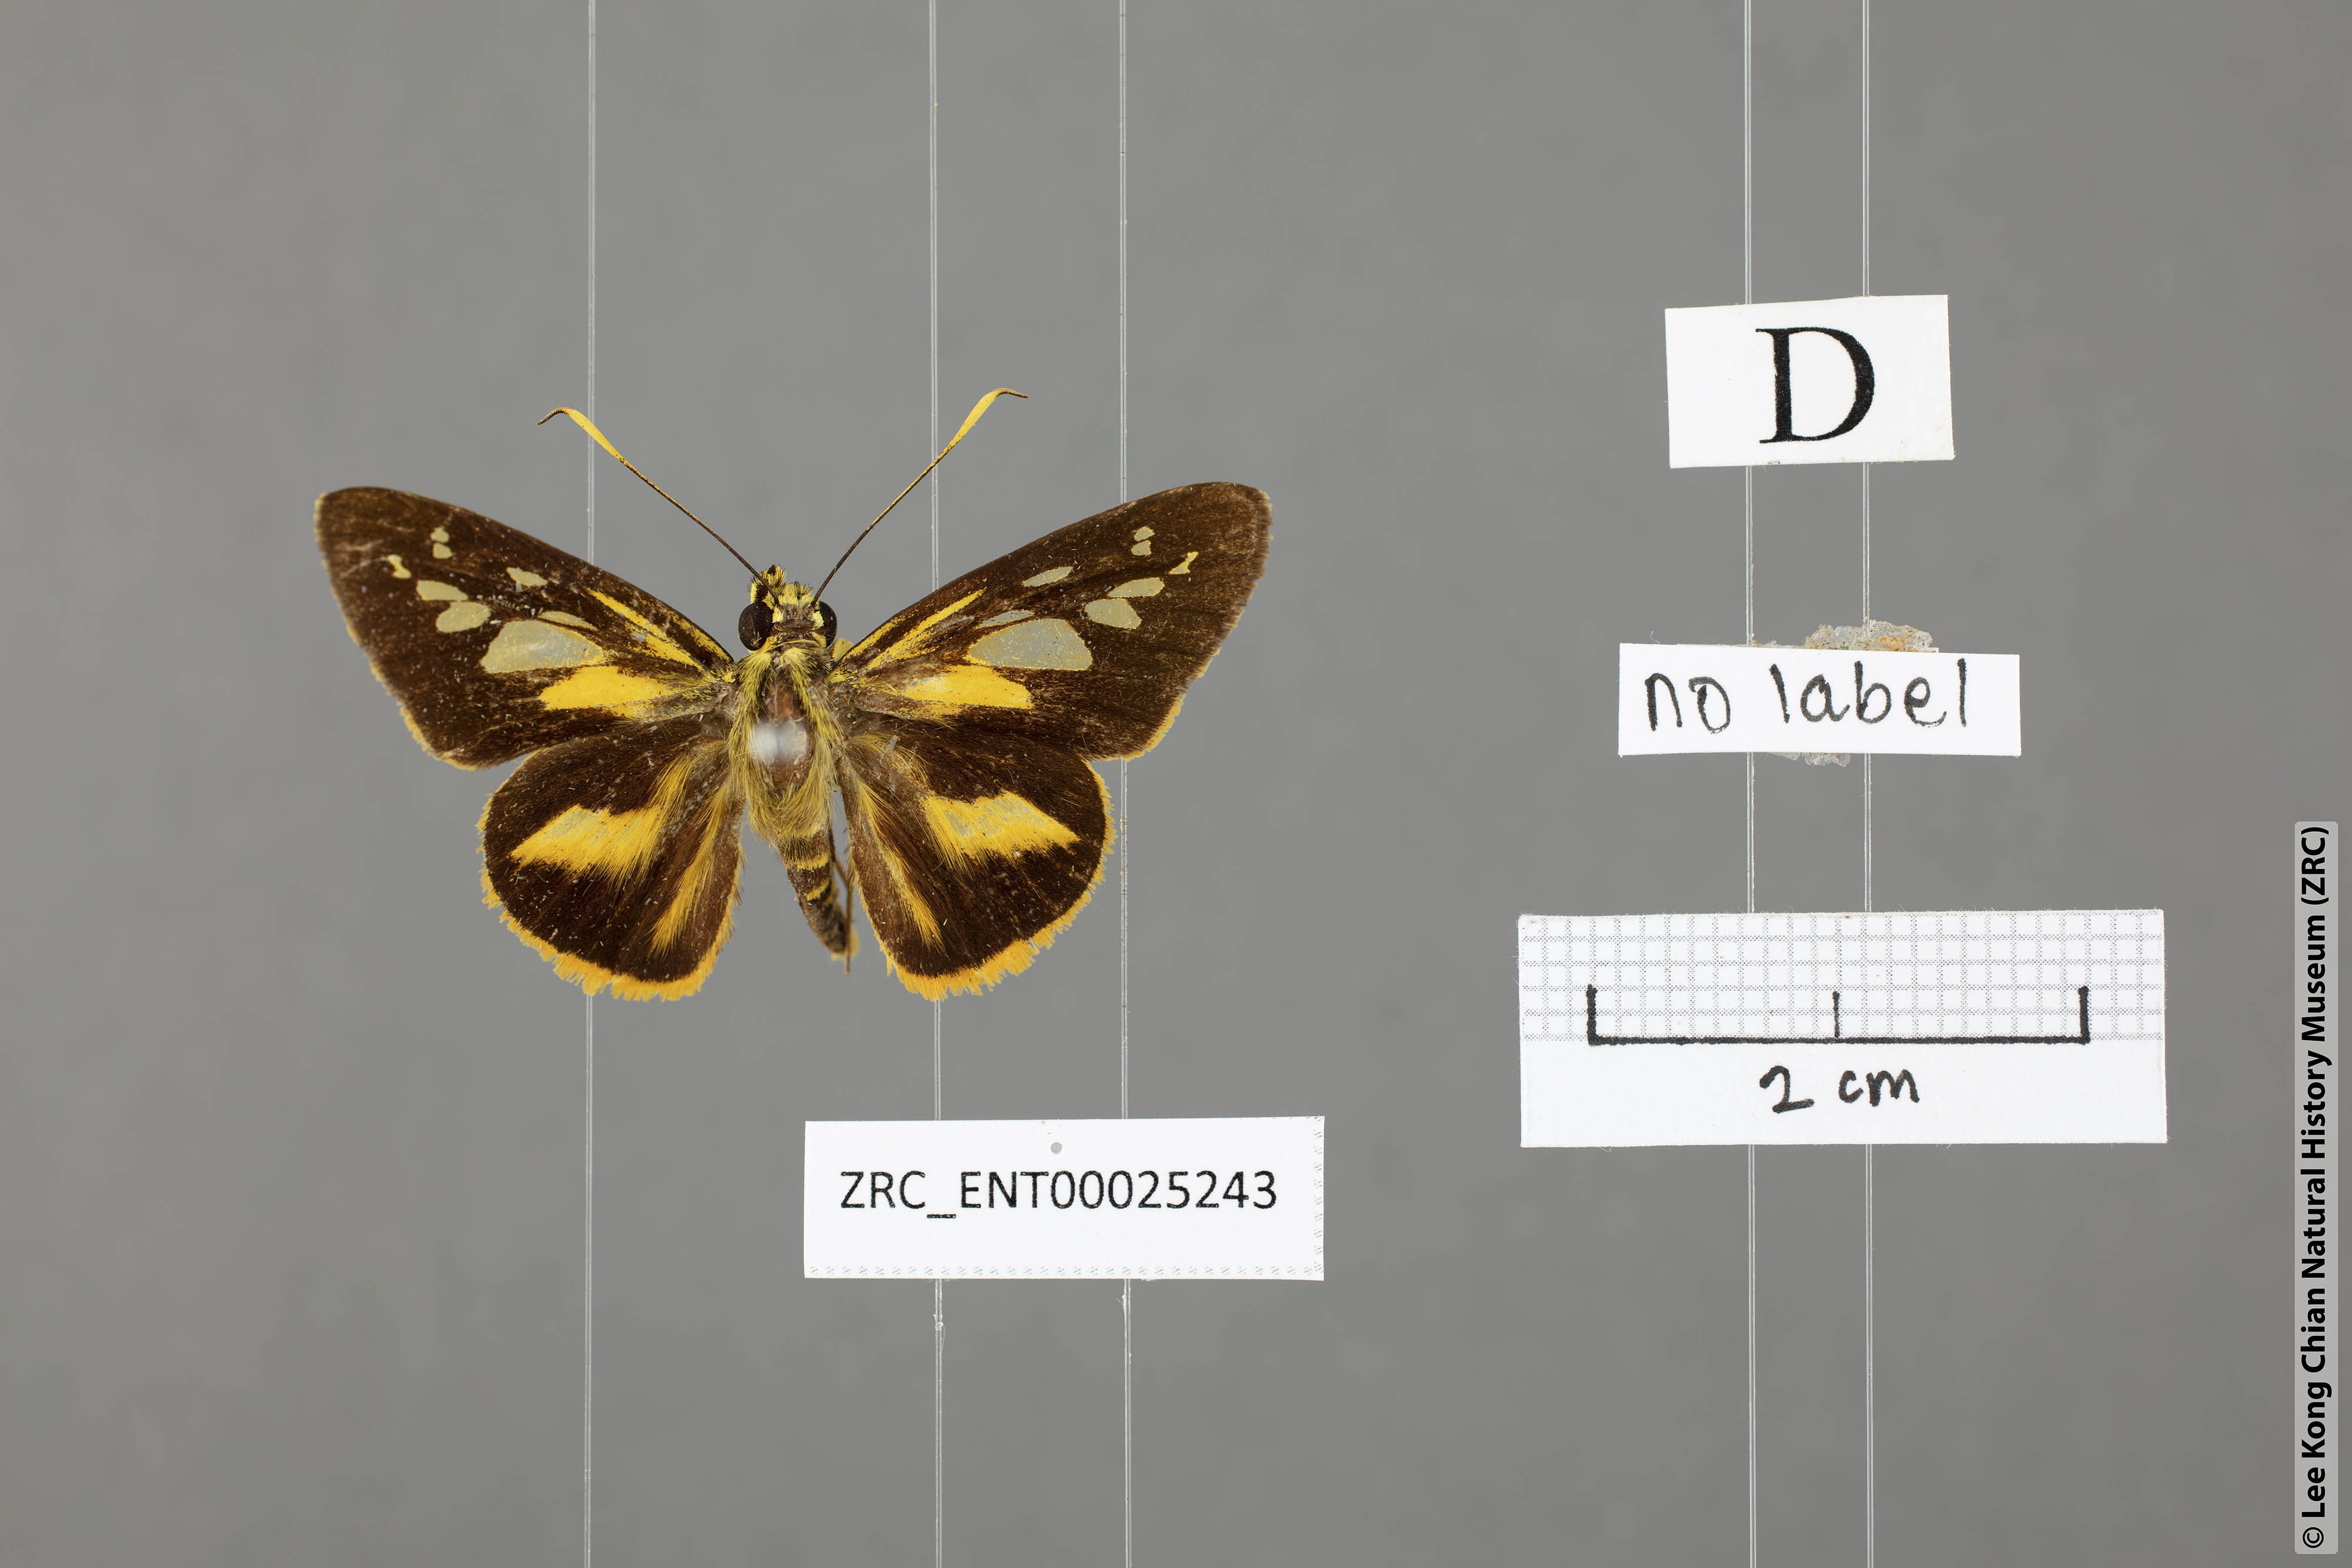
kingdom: Animalia
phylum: Arthropoda
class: Insecta
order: Lepidoptera
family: Hesperiidae
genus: Pyroneura
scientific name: Pyroneura latoia
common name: Yellow vein lancer
